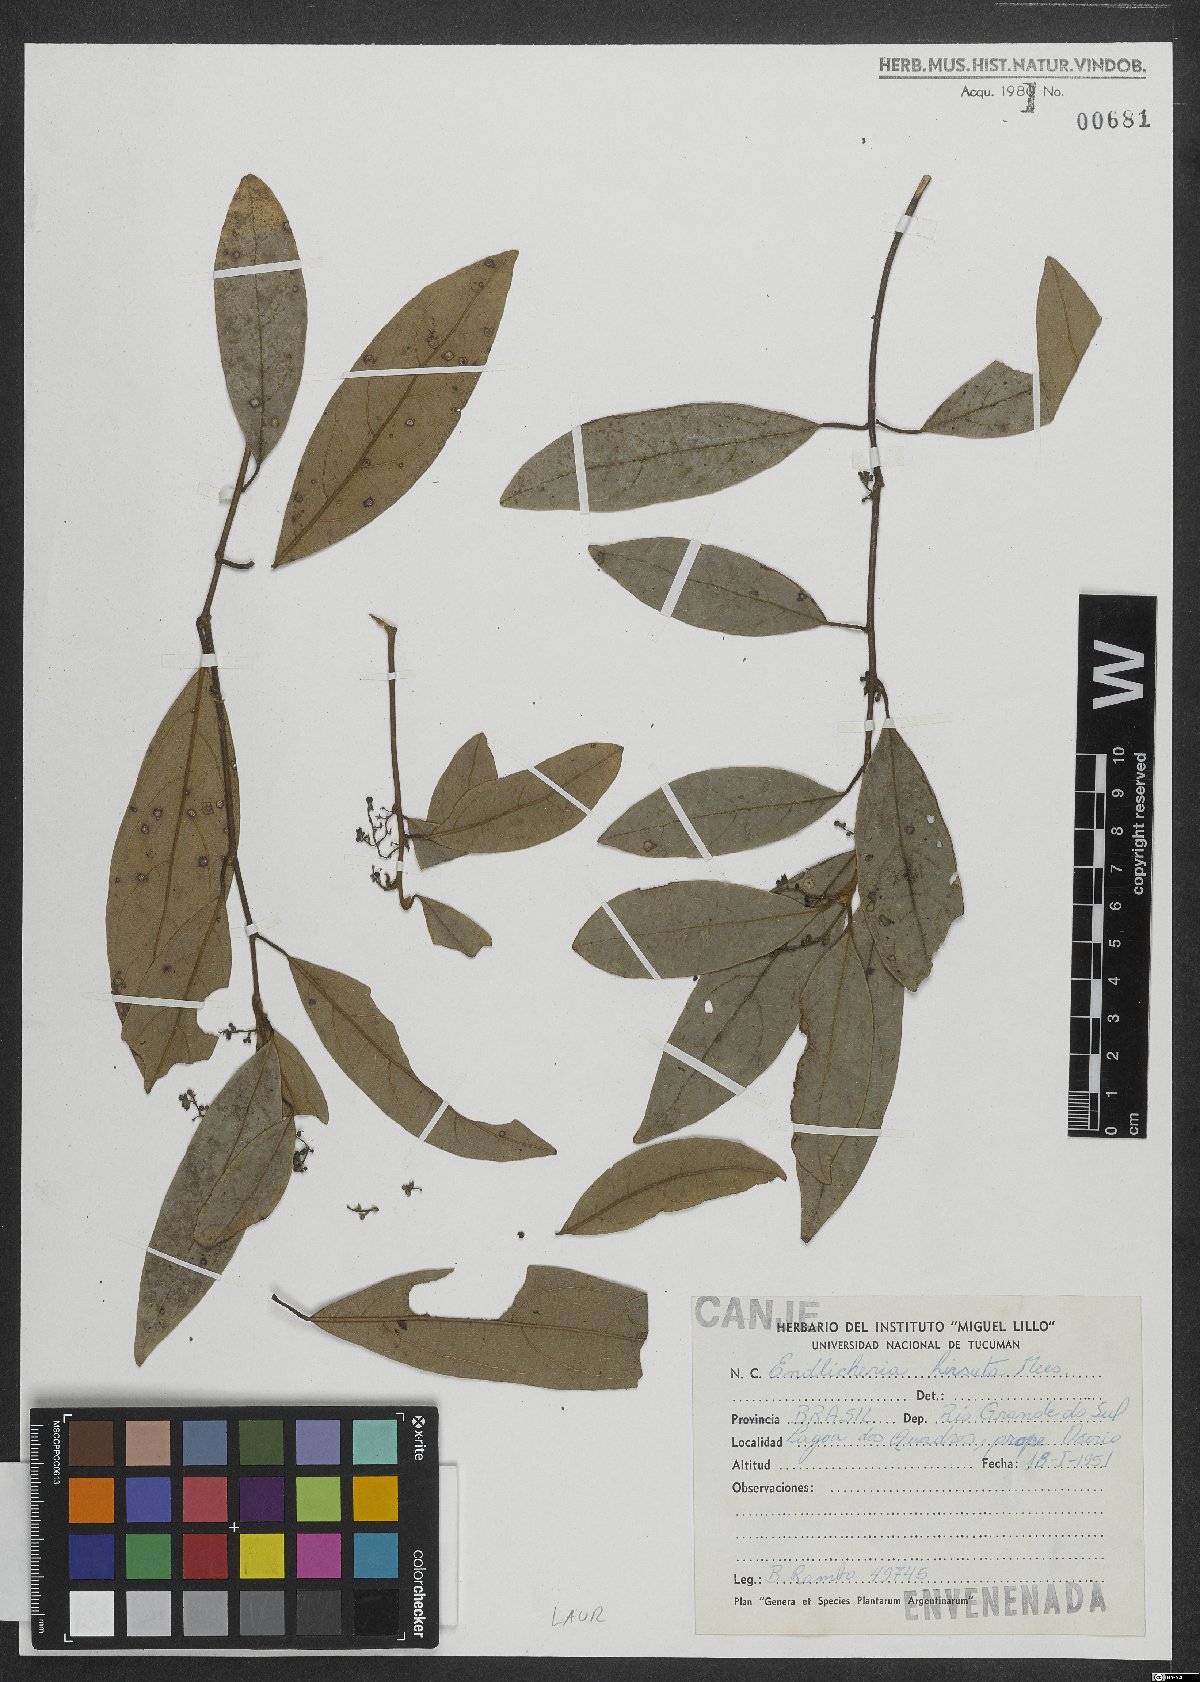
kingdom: Plantae
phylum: Tracheophyta
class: Magnoliopsida
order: Laurales
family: Lauraceae
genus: Endlicheria
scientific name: Endlicheria paniculata
